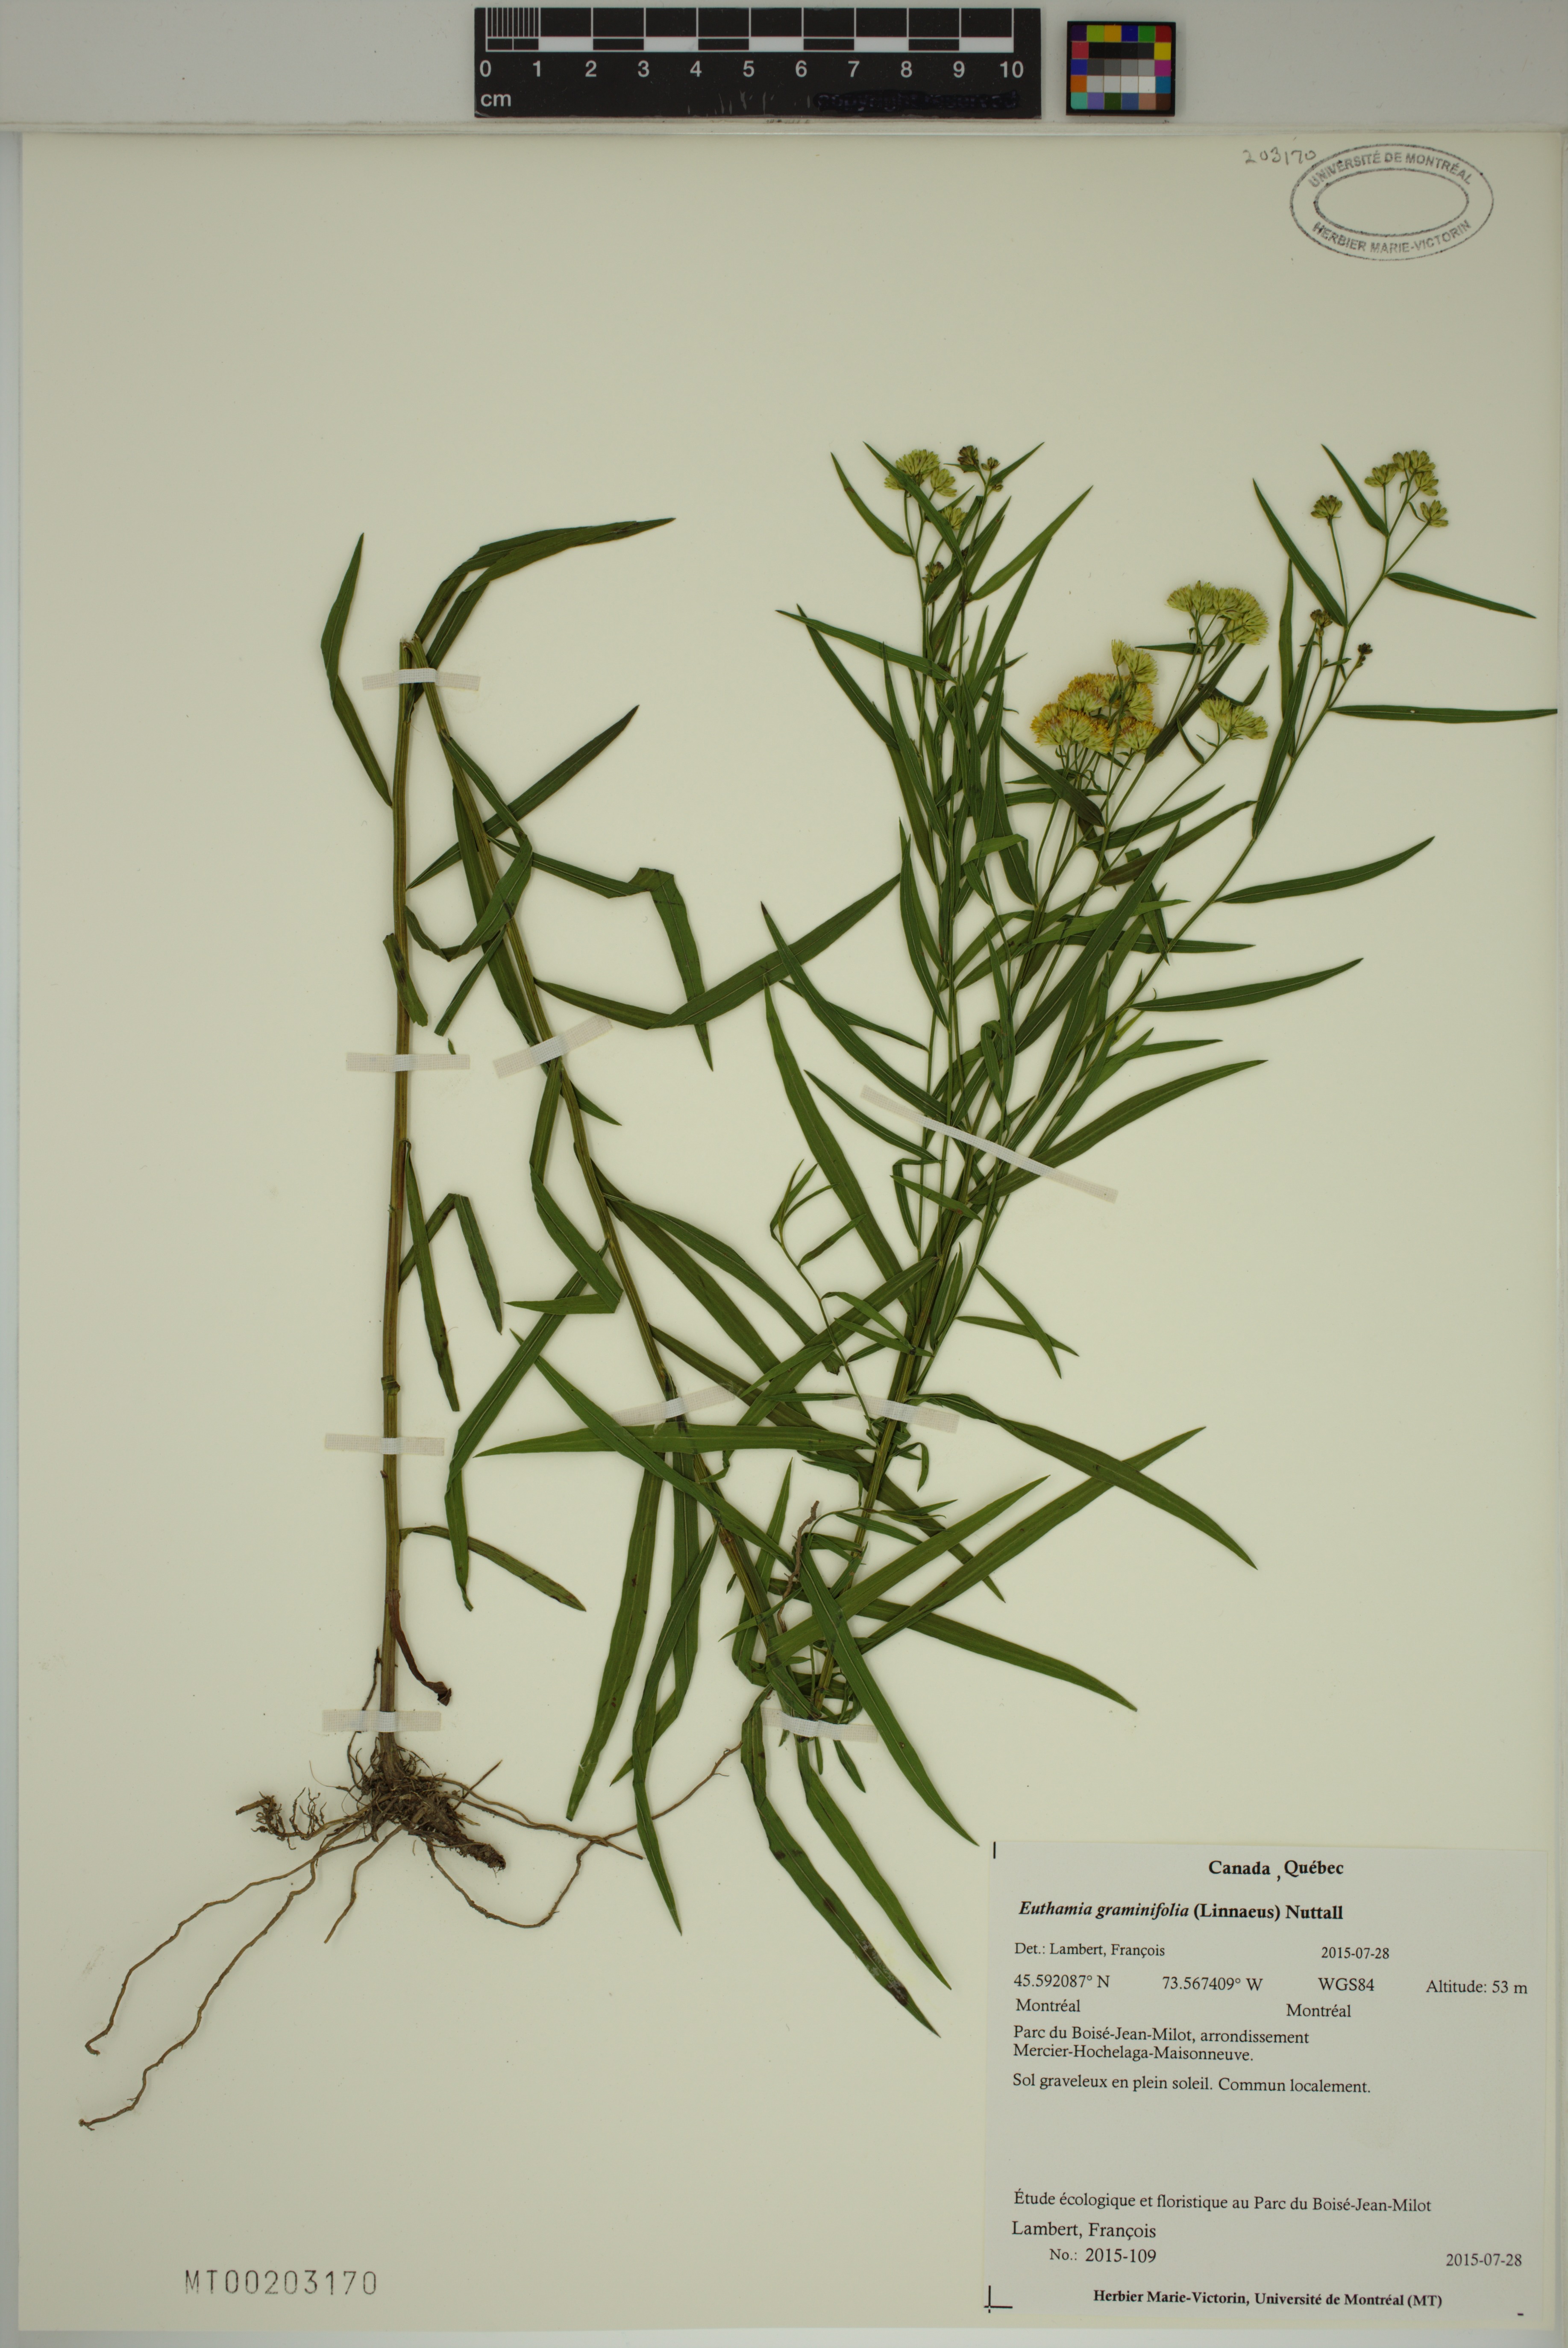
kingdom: Plantae
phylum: Tracheophyta
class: Magnoliopsida
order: Asterales
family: Asteraceae
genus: Euthamia
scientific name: Euthamia graminifolia
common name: Common goldentop
